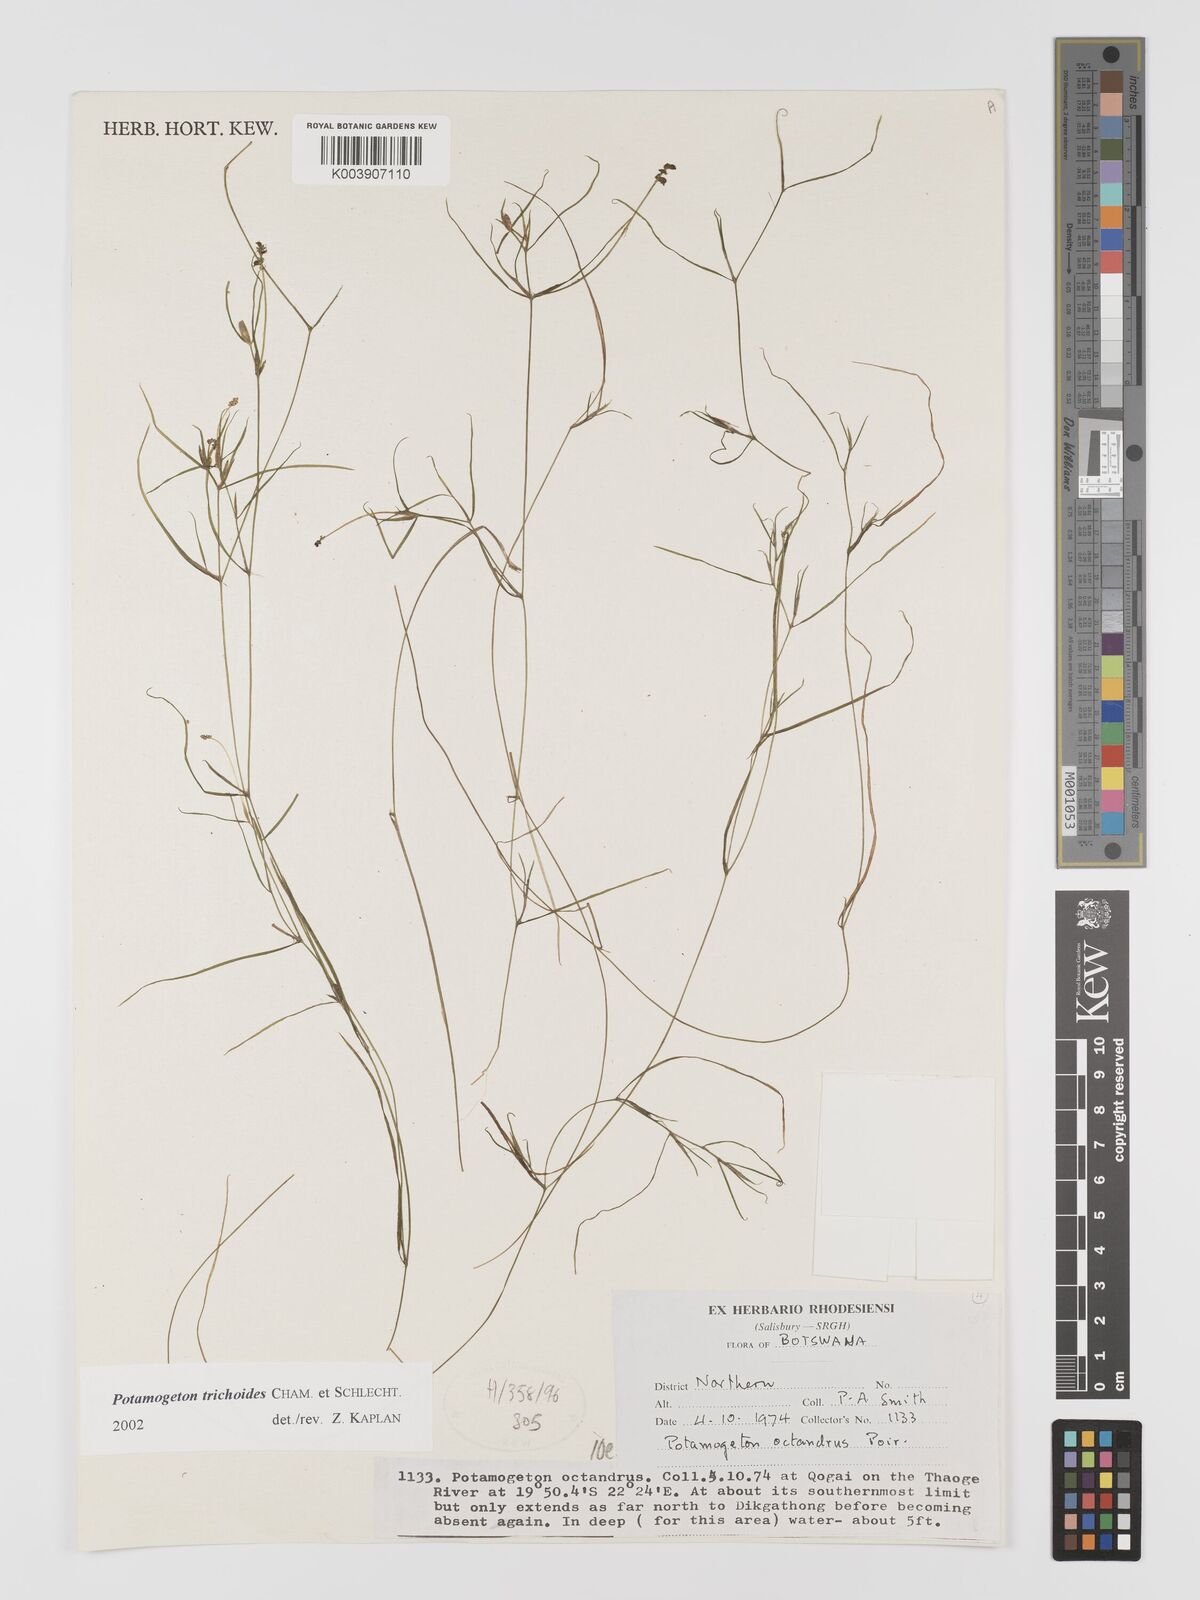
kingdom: Plantae
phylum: Tracheophyta
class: Liliopsida
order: Alismatales
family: Potamogetonaceae
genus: Potamogeton
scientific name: Potamogeton trichoides
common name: Hairlike pondweed
